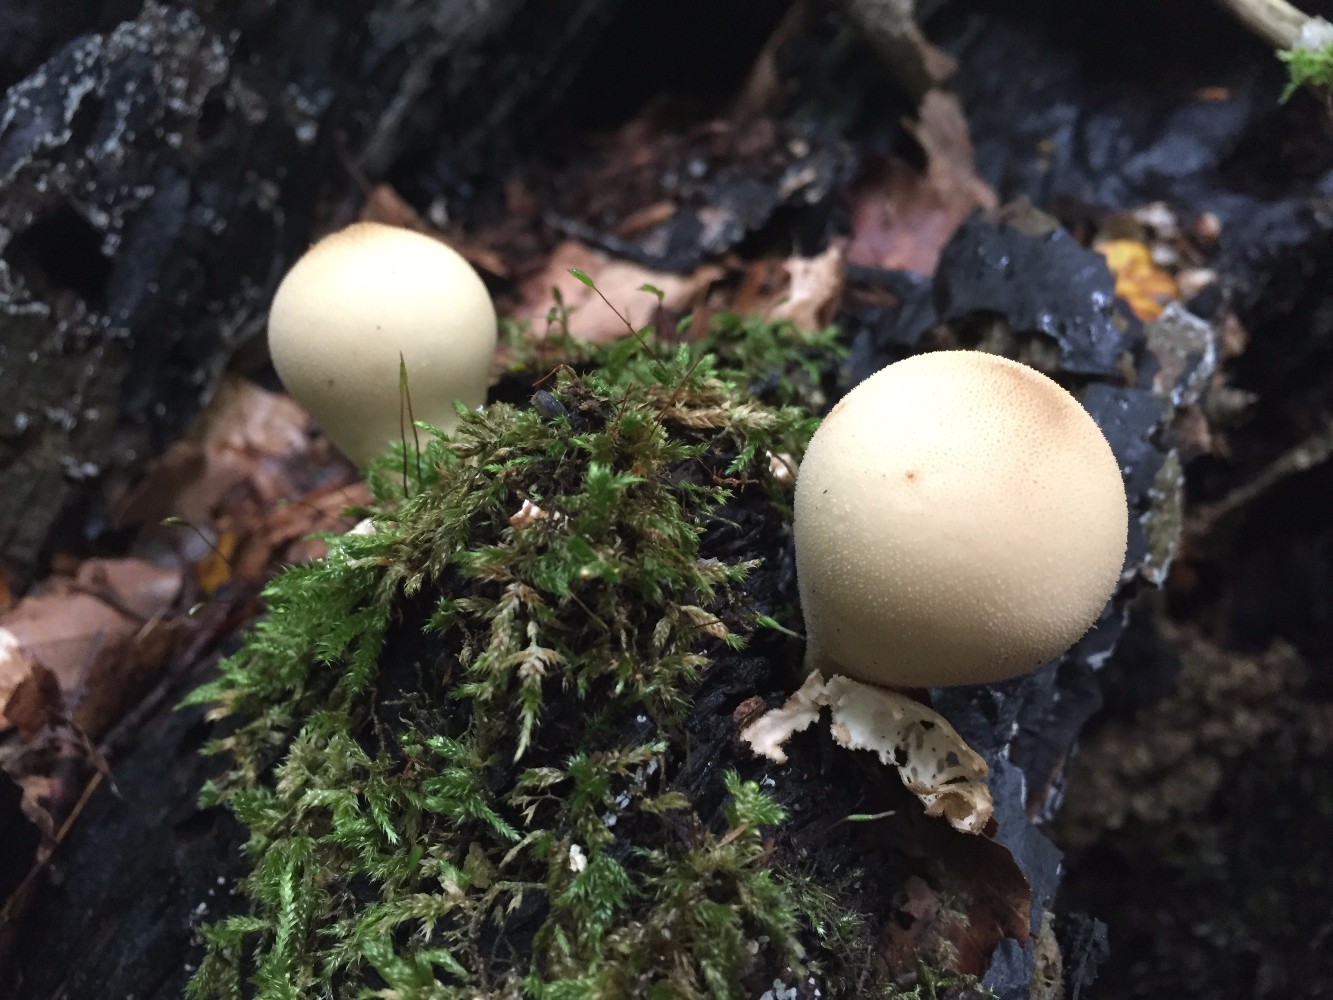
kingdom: Fungi
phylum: Basidiomycota
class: Agaricomycetes
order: Agaricales
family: Lycoperdaceae
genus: Apioperdon
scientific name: Apioperdon pyriforme
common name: pære-støvbold
